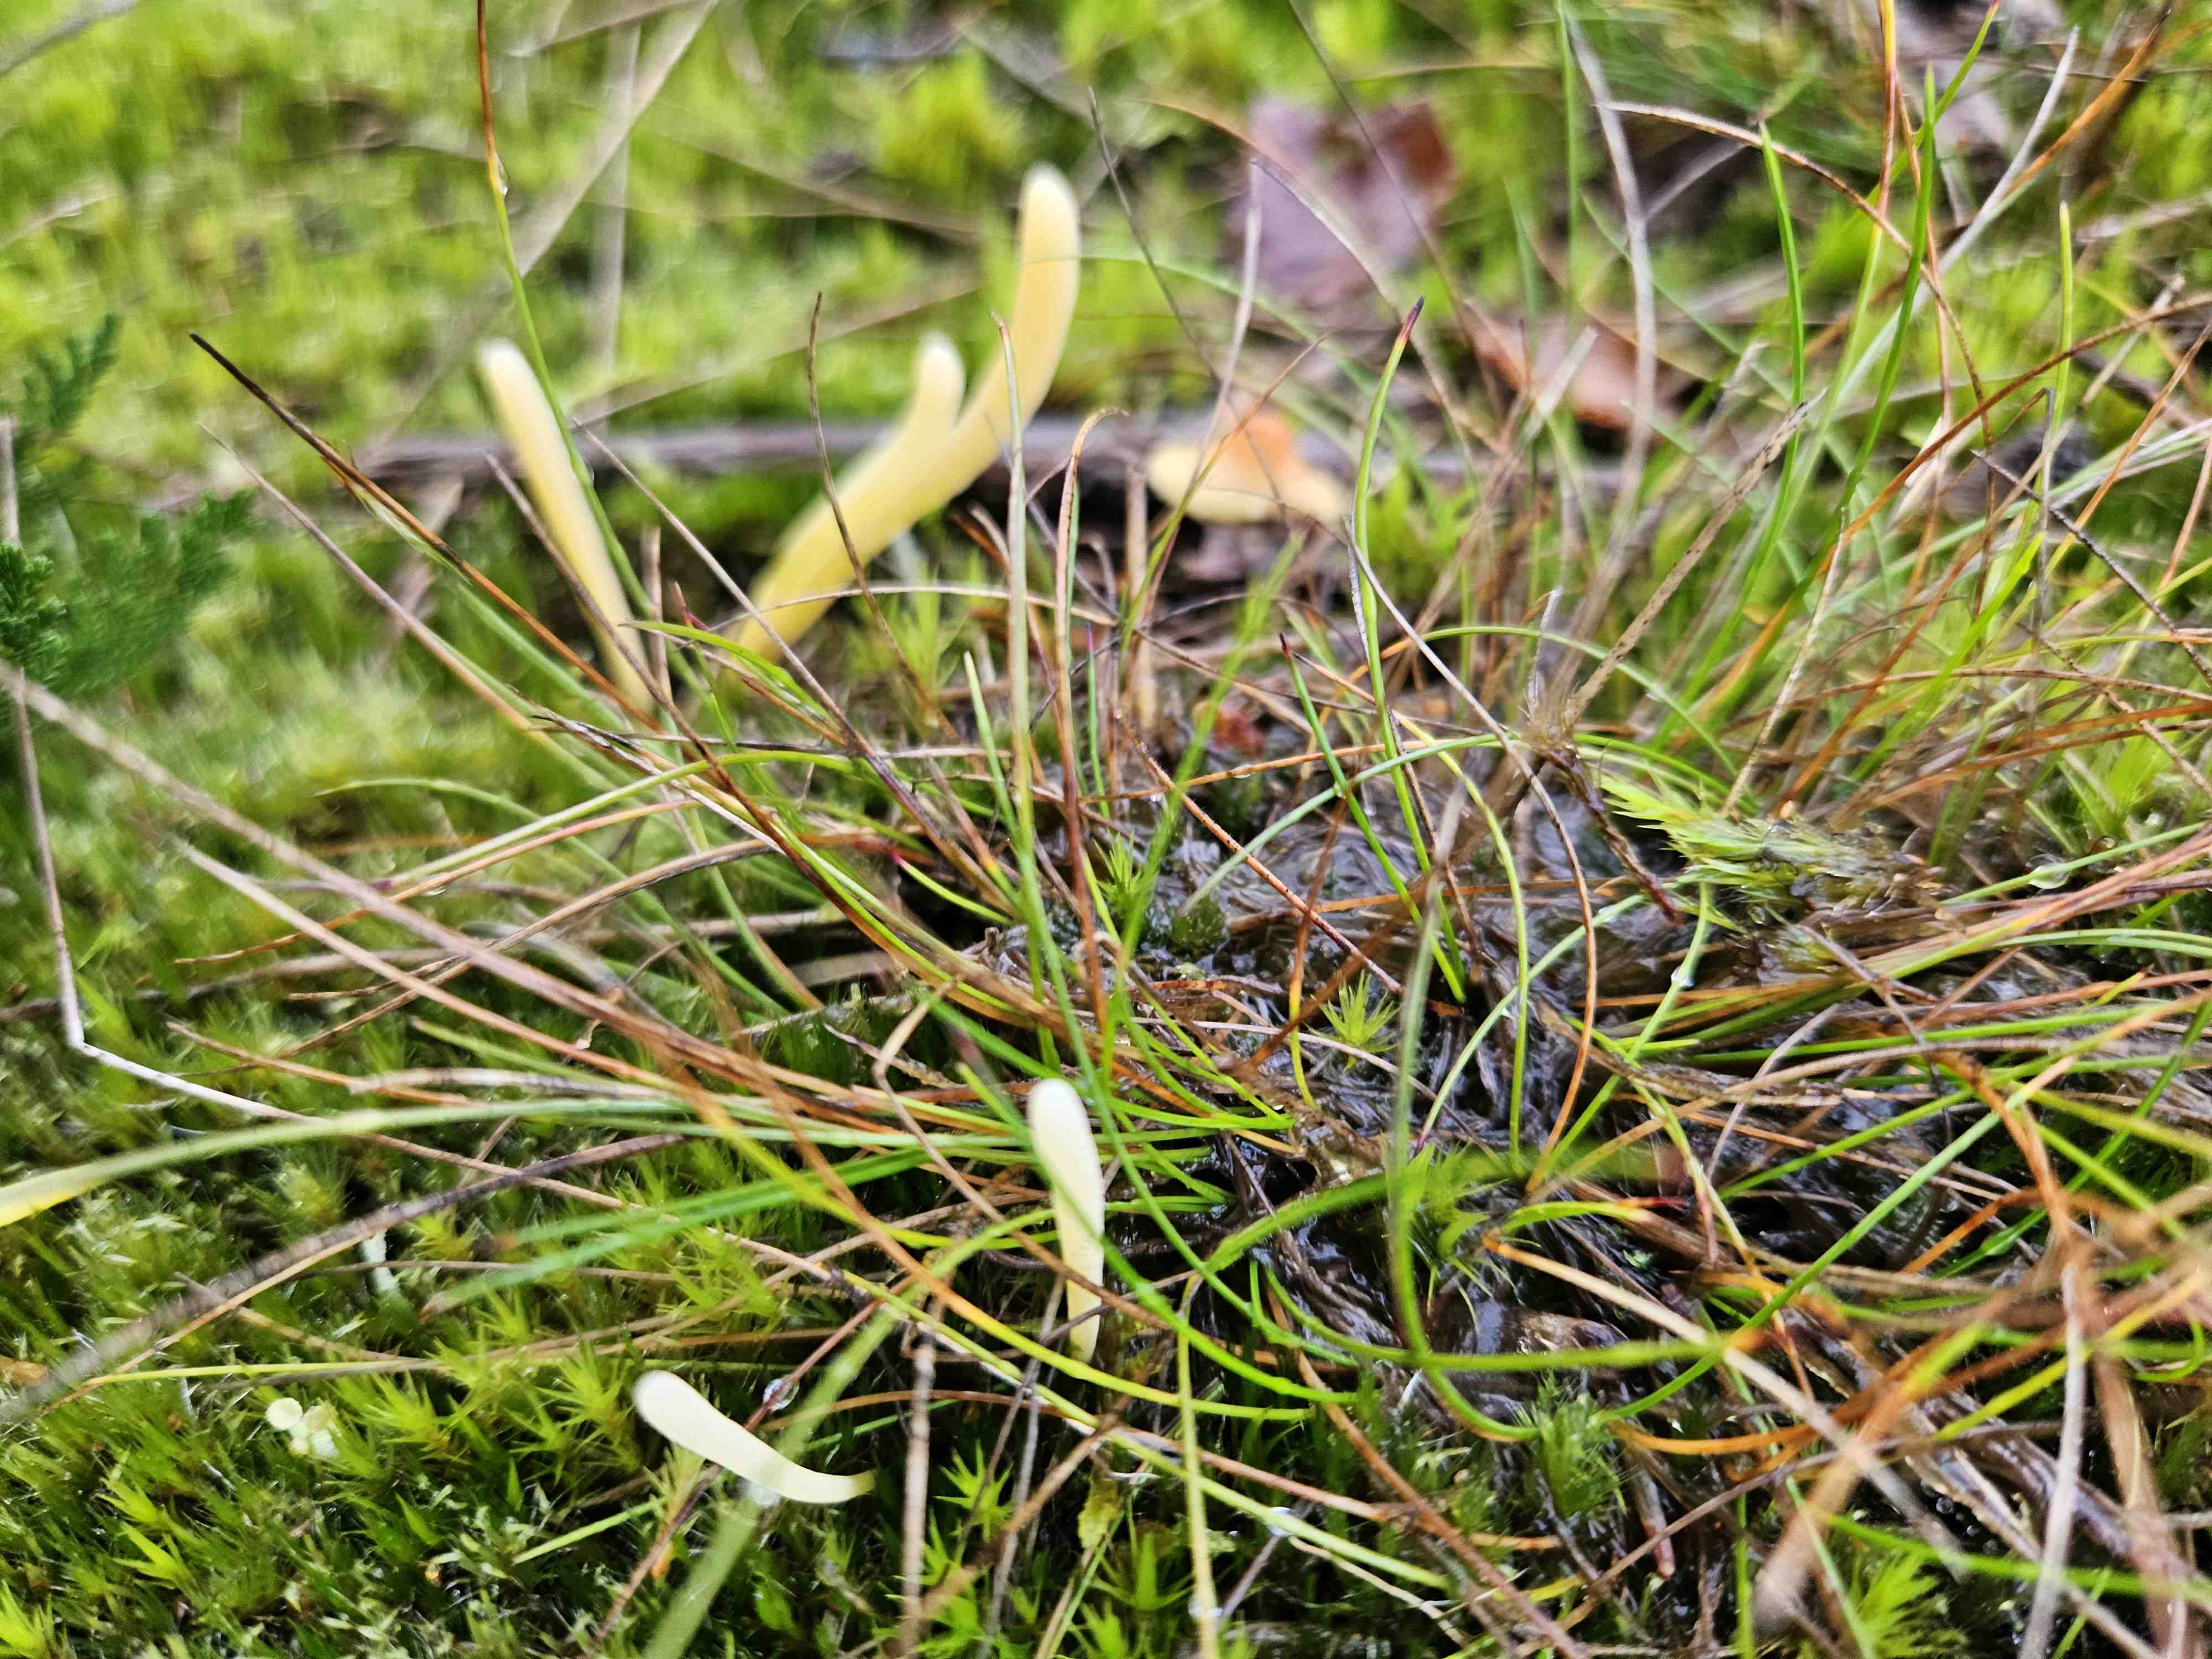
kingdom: Fungi
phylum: Basidiomycota
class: Agaricomycetes
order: Agaricales
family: Clavariaceae
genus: Clavaria
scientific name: Clavaria argillacea
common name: lerfarvet køllesvamp
